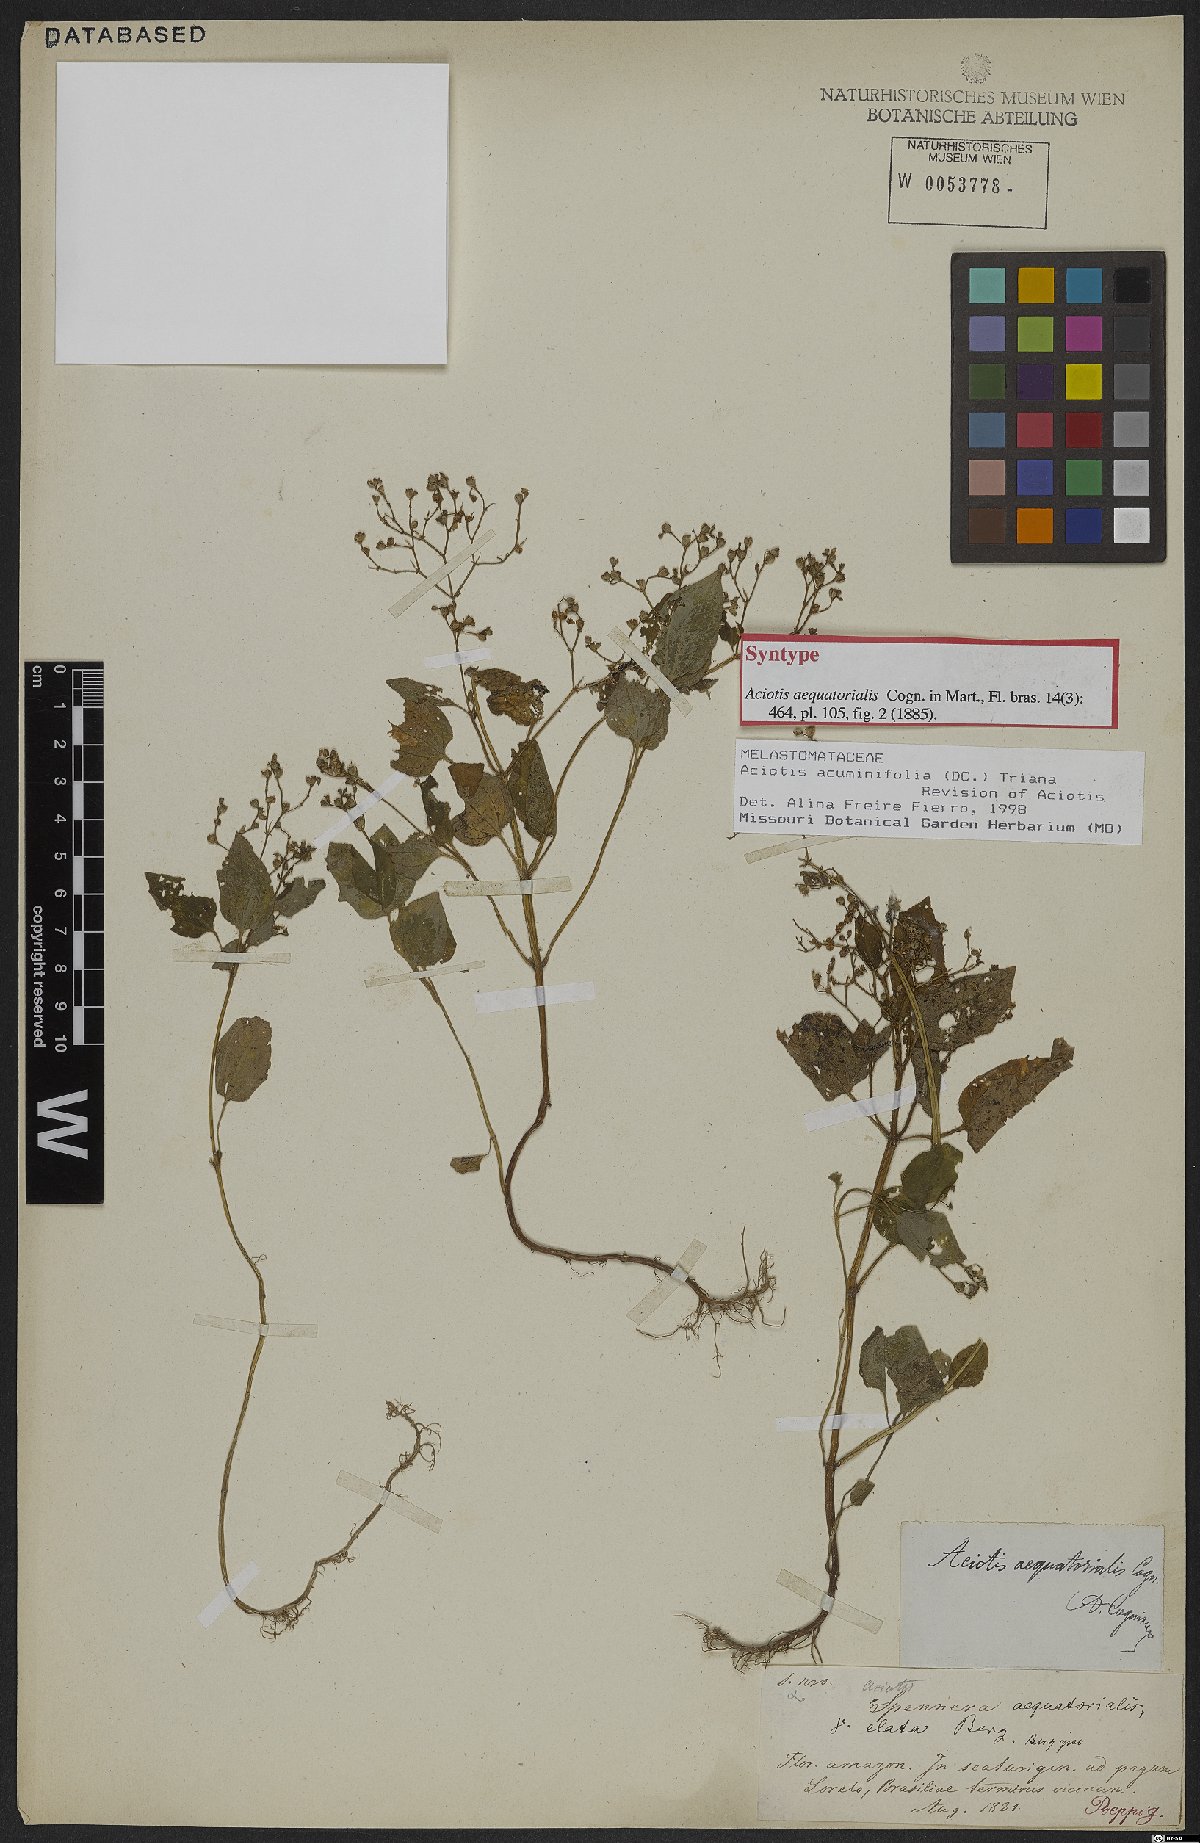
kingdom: Plantae
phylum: Tracheophyta
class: Magnoliopsida
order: Myrtales
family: Melastomataceae
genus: Aciotis
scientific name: Aciotis acuminifolia
